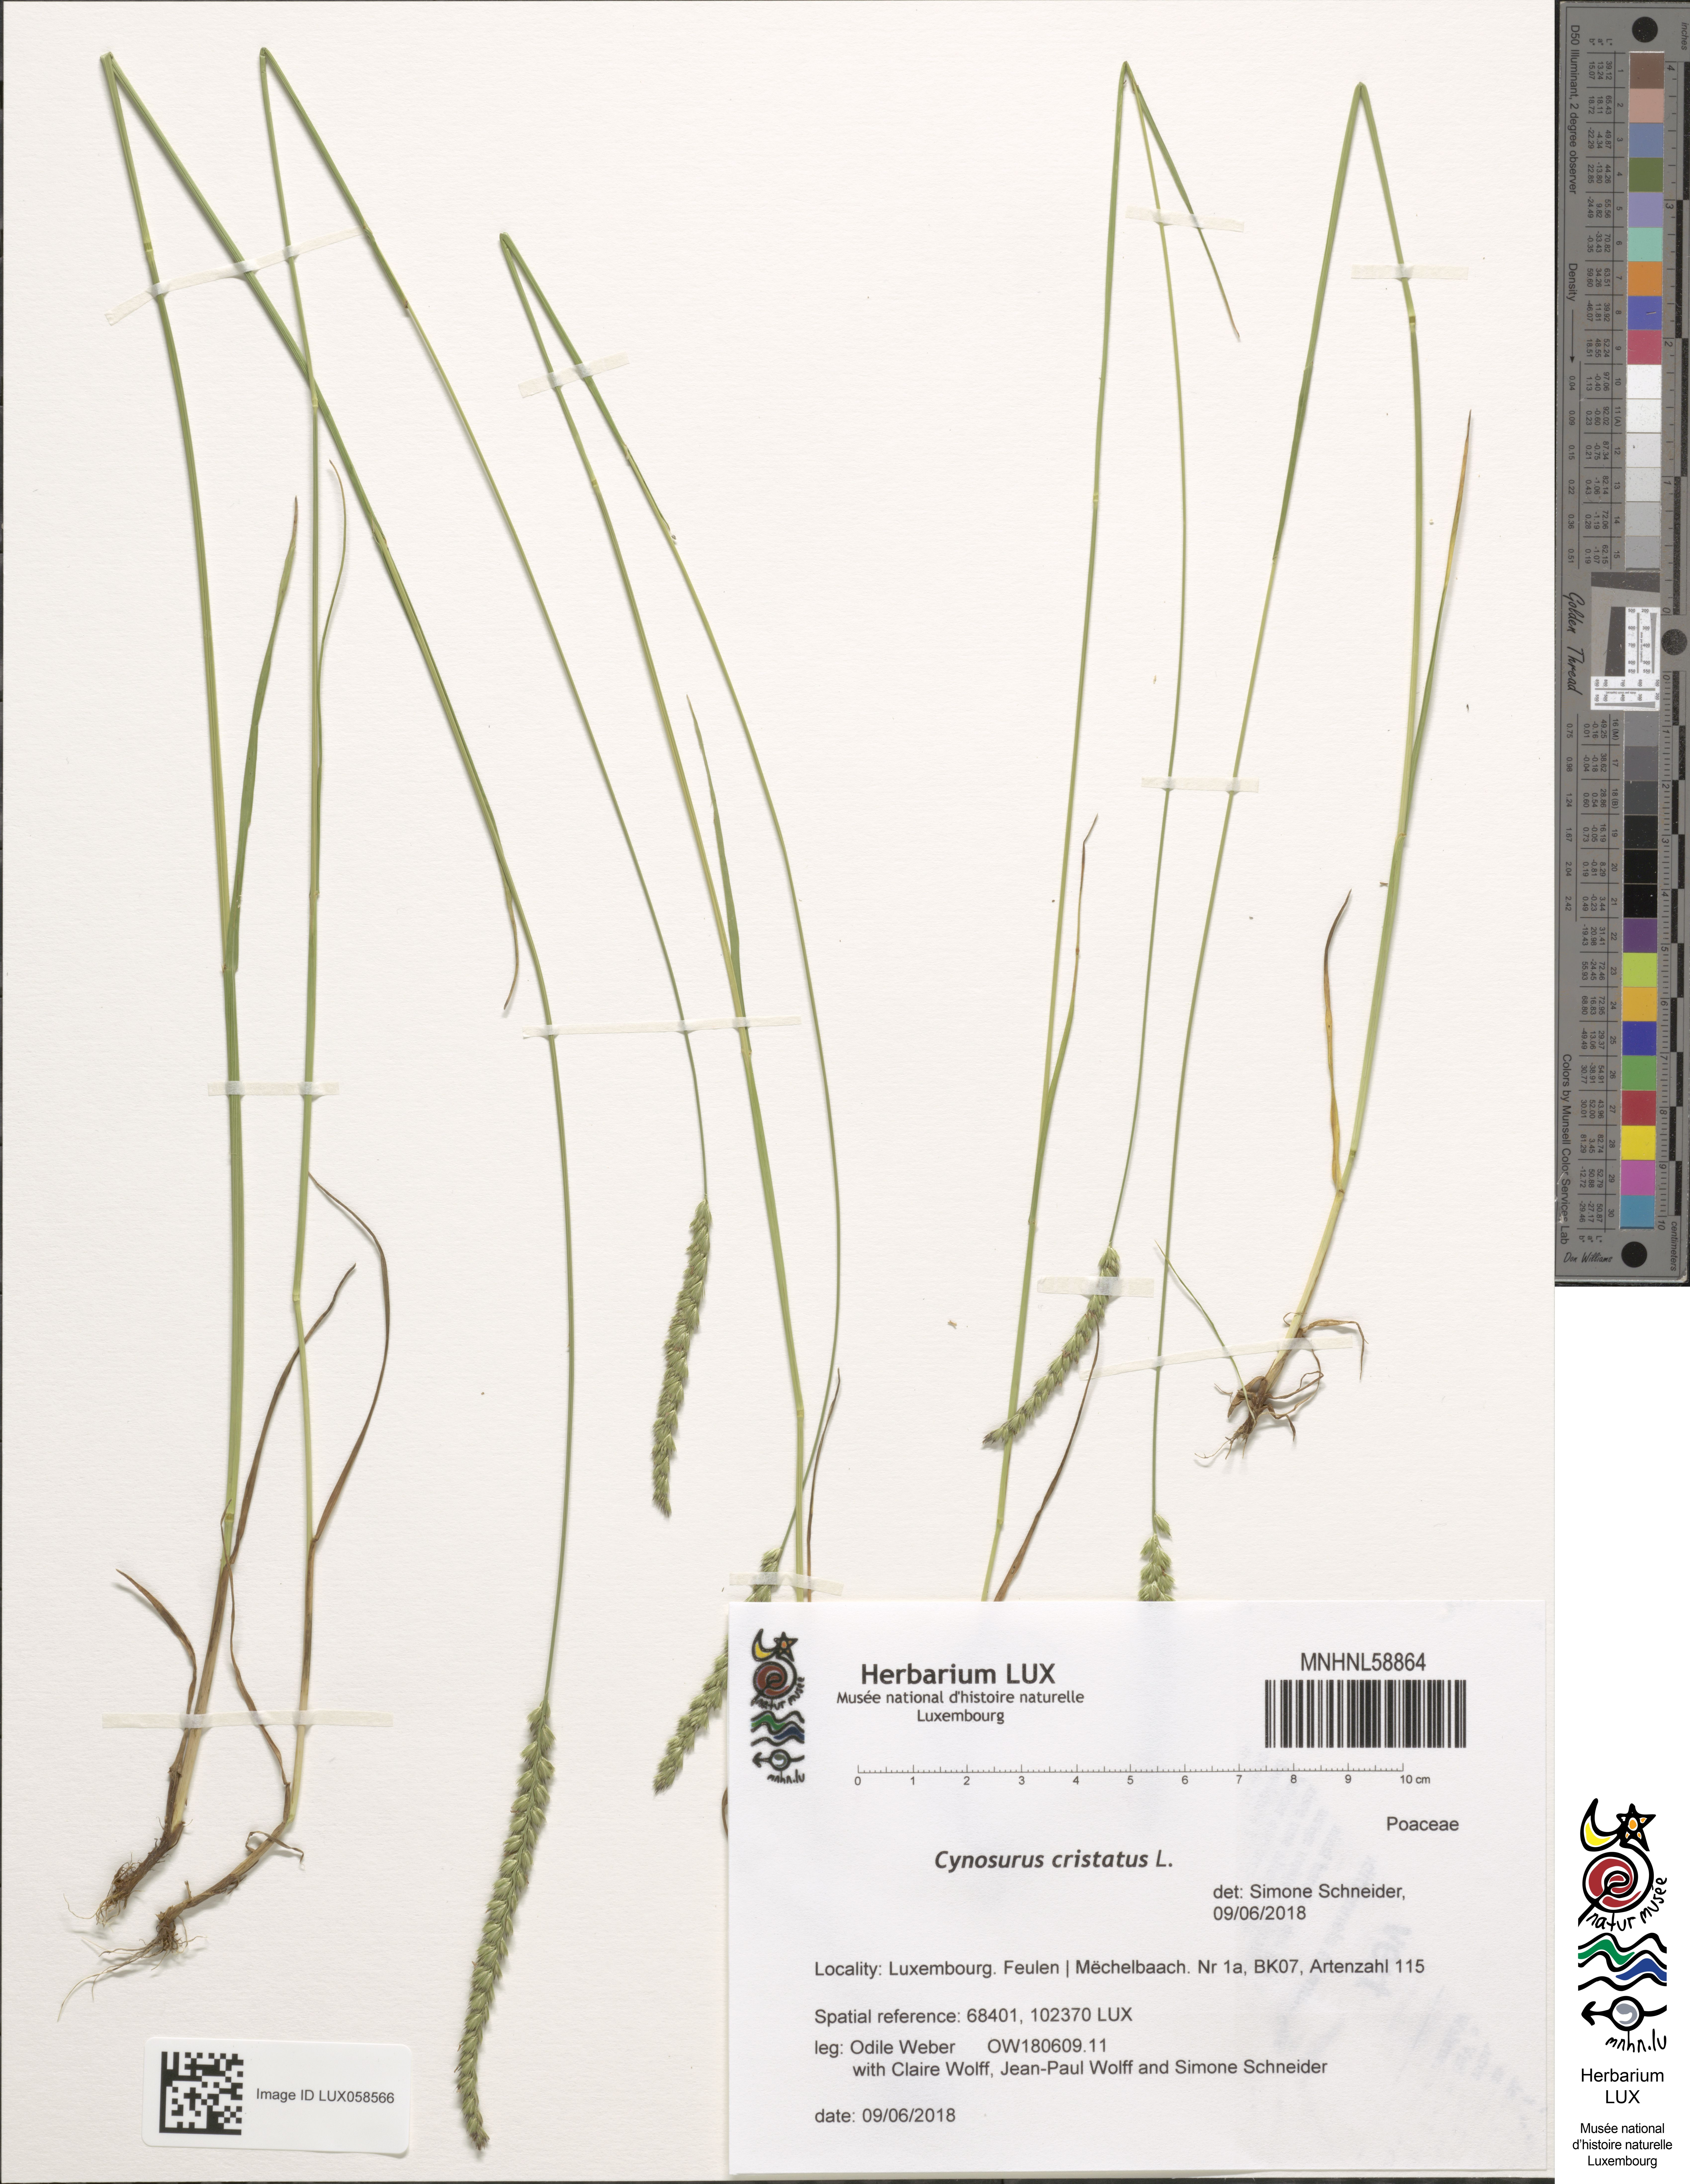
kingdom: Plantae
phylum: Tracheophyta
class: Liliopsida
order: Poales
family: Poaceae
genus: Cynosurus
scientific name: Cynosurus cristatus
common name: Crested dog's-tail
